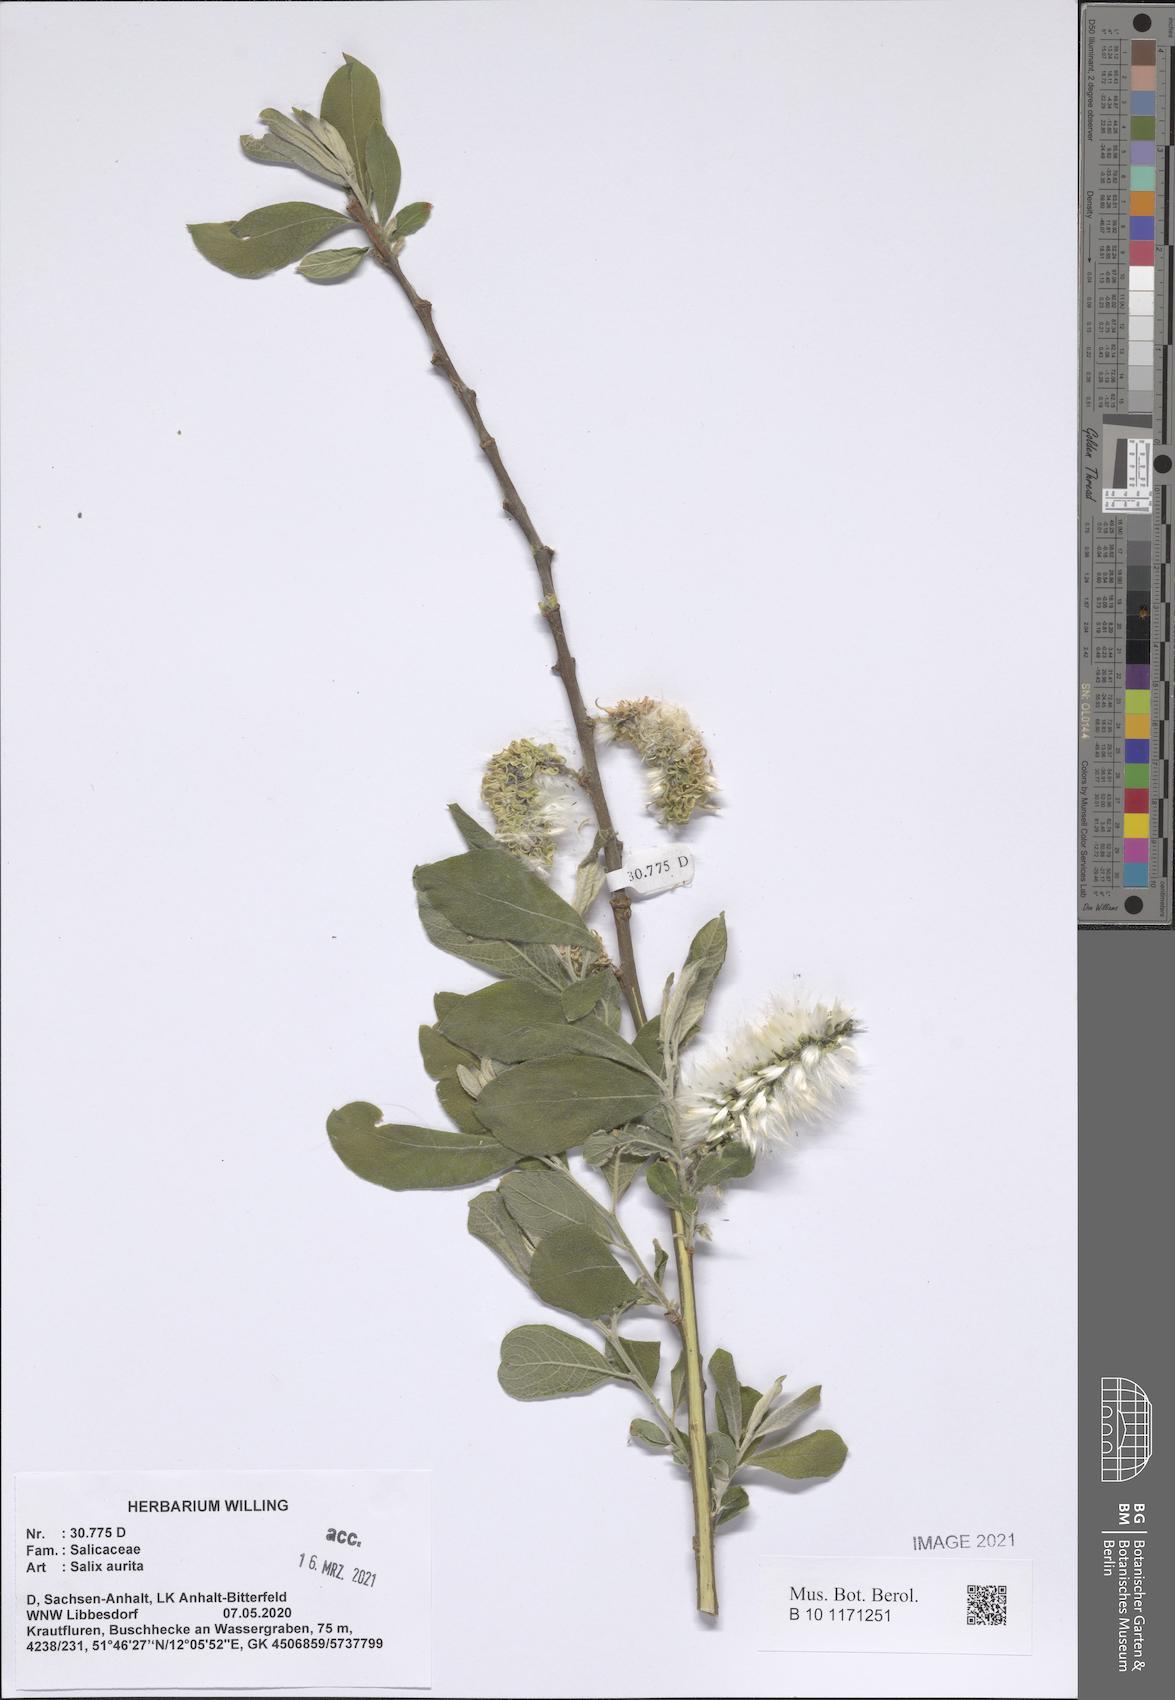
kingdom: Plantae
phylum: Tracheophyta
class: Magnoliopsida
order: Malpighiales
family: Salicaceae
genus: Salix
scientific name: Salix aurita
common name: Eared willow
